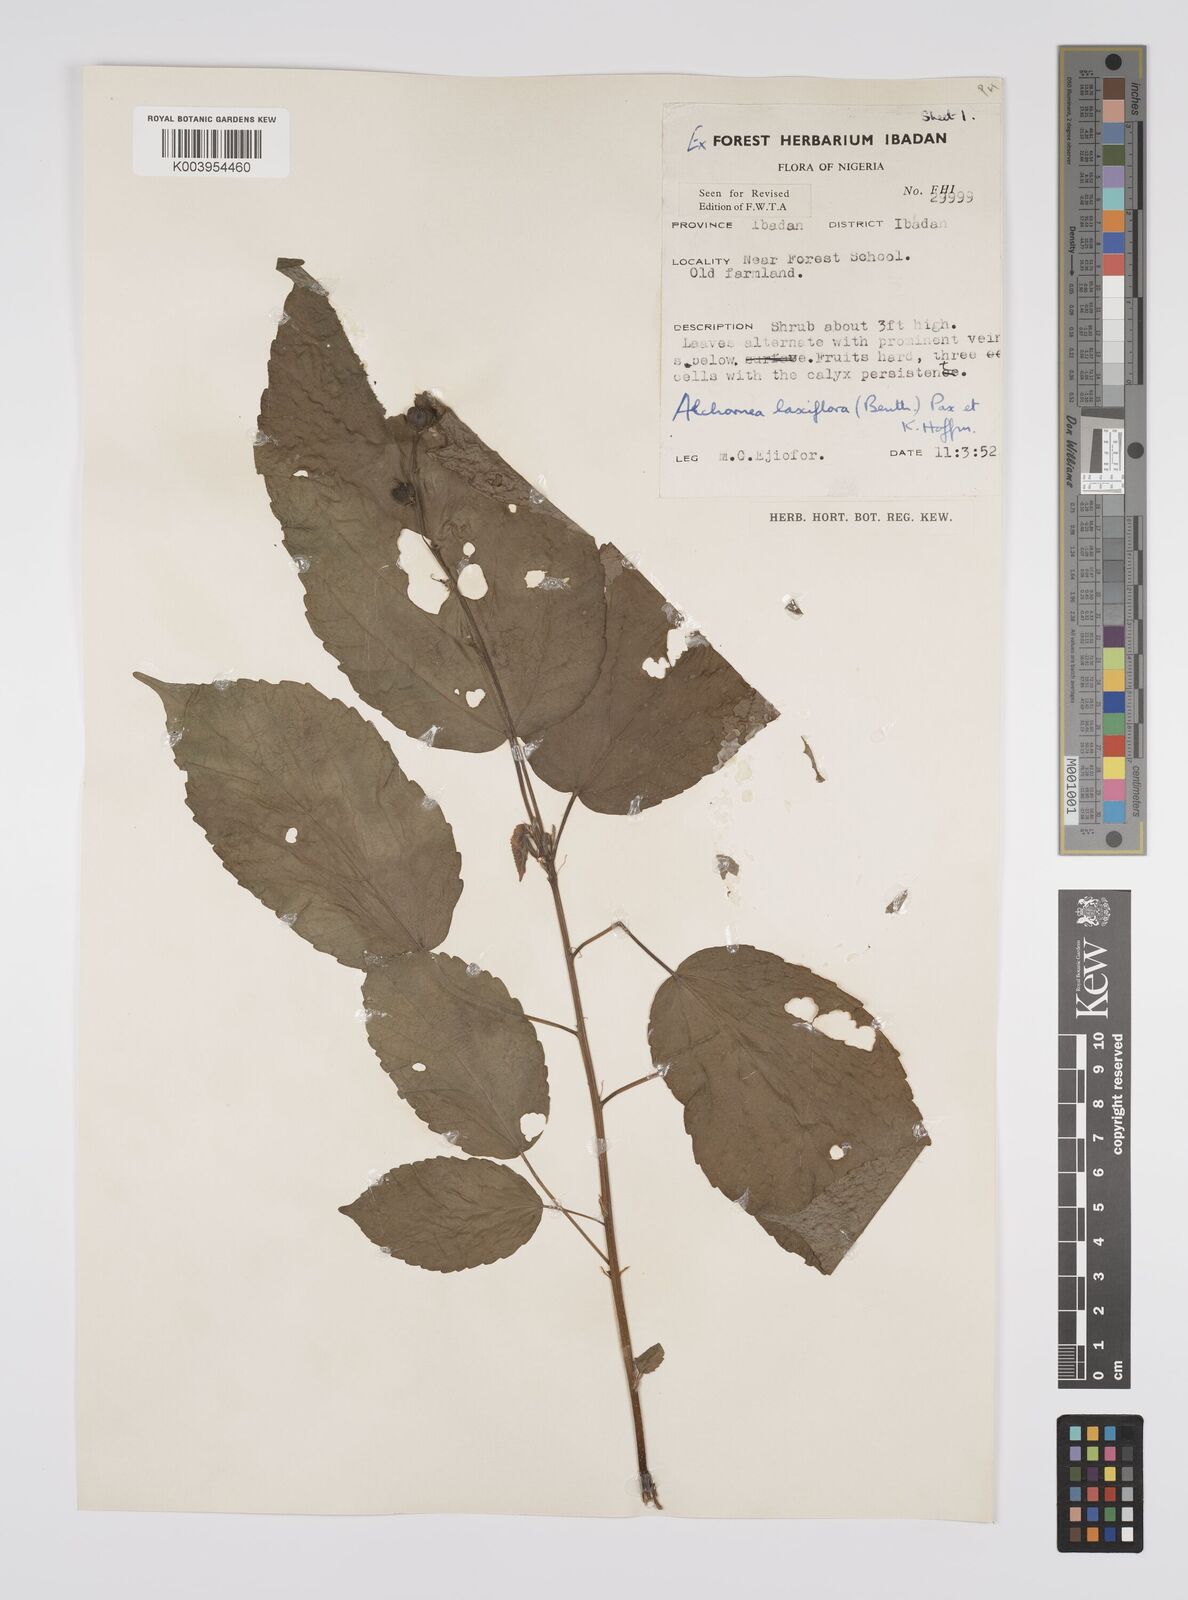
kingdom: Plantae
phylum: Tracheophyta
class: Magnoliopsida
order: Malpighiales
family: Euphorbiaceae
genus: Alchornea
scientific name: Alchornea laxiflora
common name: Lowveld bead-string
